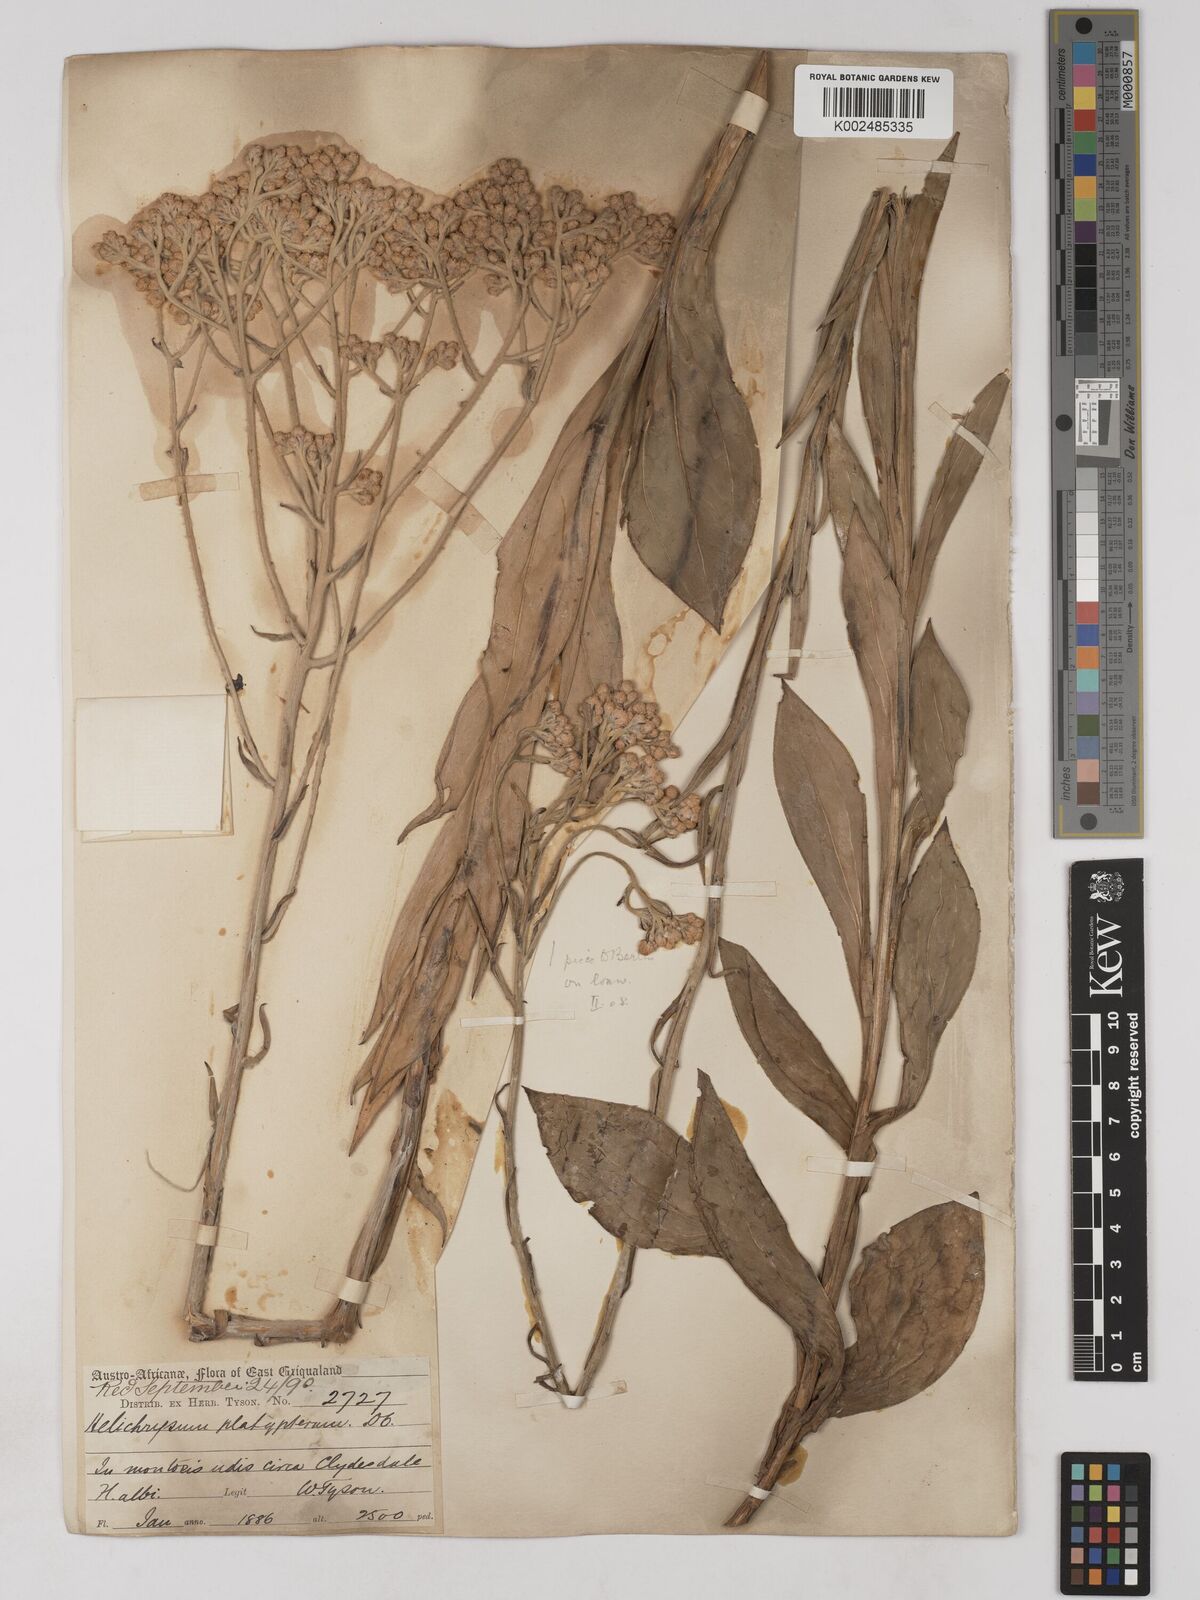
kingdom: Plantae
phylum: Tracheophyta
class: Magnoliopsida
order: Asterales
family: Asteraceae
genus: Helichrysum
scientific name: Helichrysum platypterum
